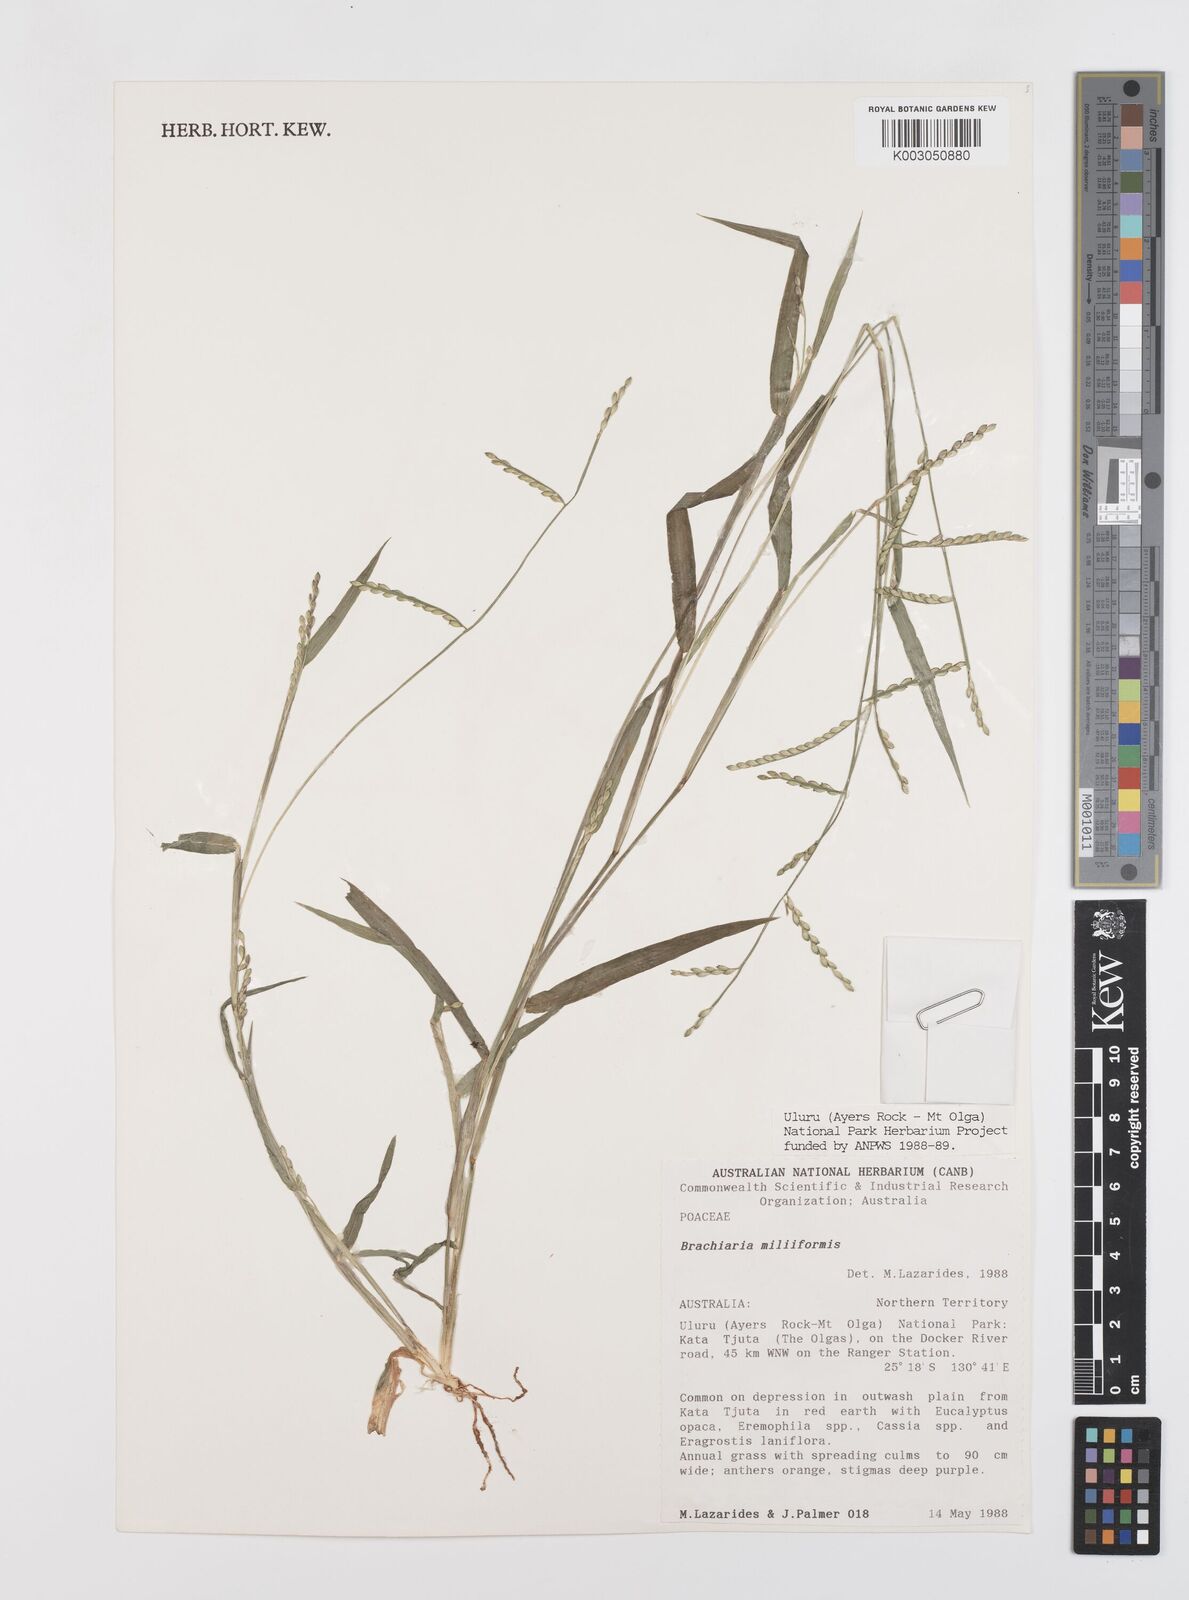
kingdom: Plantae
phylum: Tracheophyta
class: Liliopsida
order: Poales
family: Poaceae
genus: Urochloa
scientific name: Urochloa subquadripara
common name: Armgrass millet
